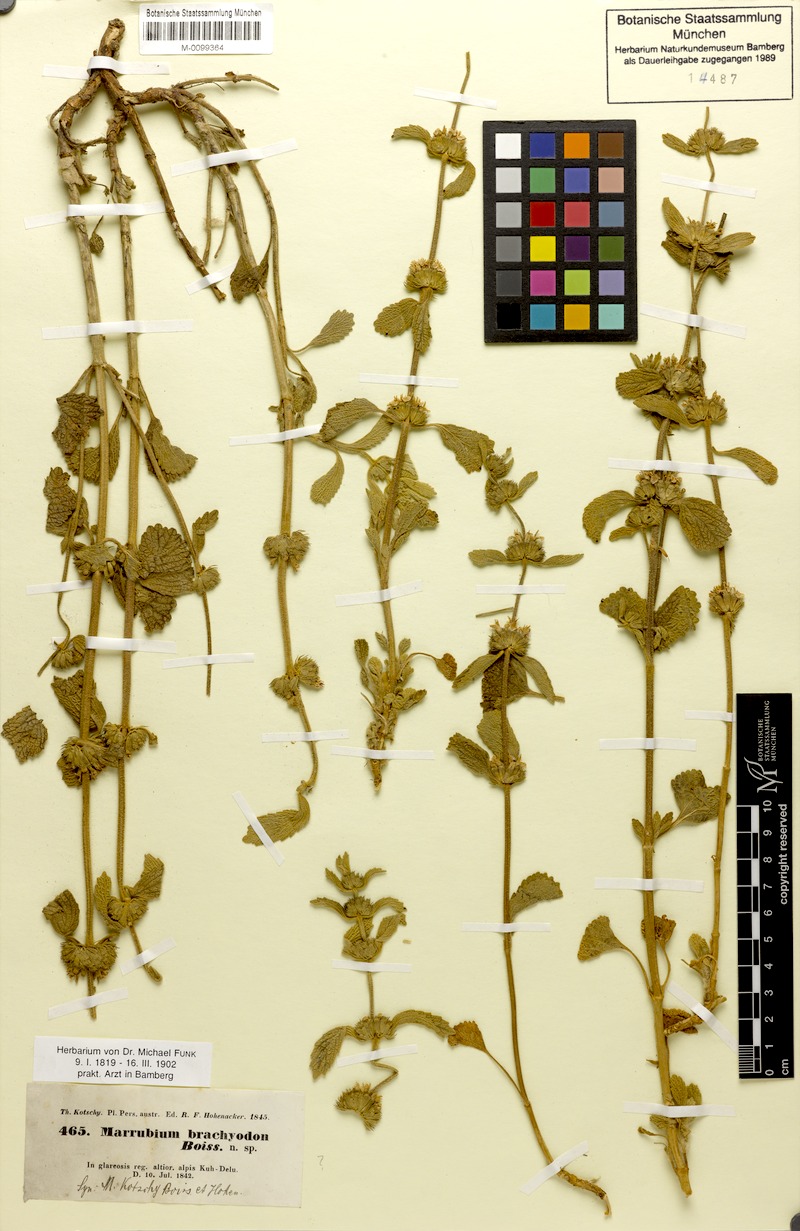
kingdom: Plantae
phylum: Tracheophyta
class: Magnoliopsida
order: Lamiales
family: Lamiaceae
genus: Marrubium
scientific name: Marrubium astracanicum
